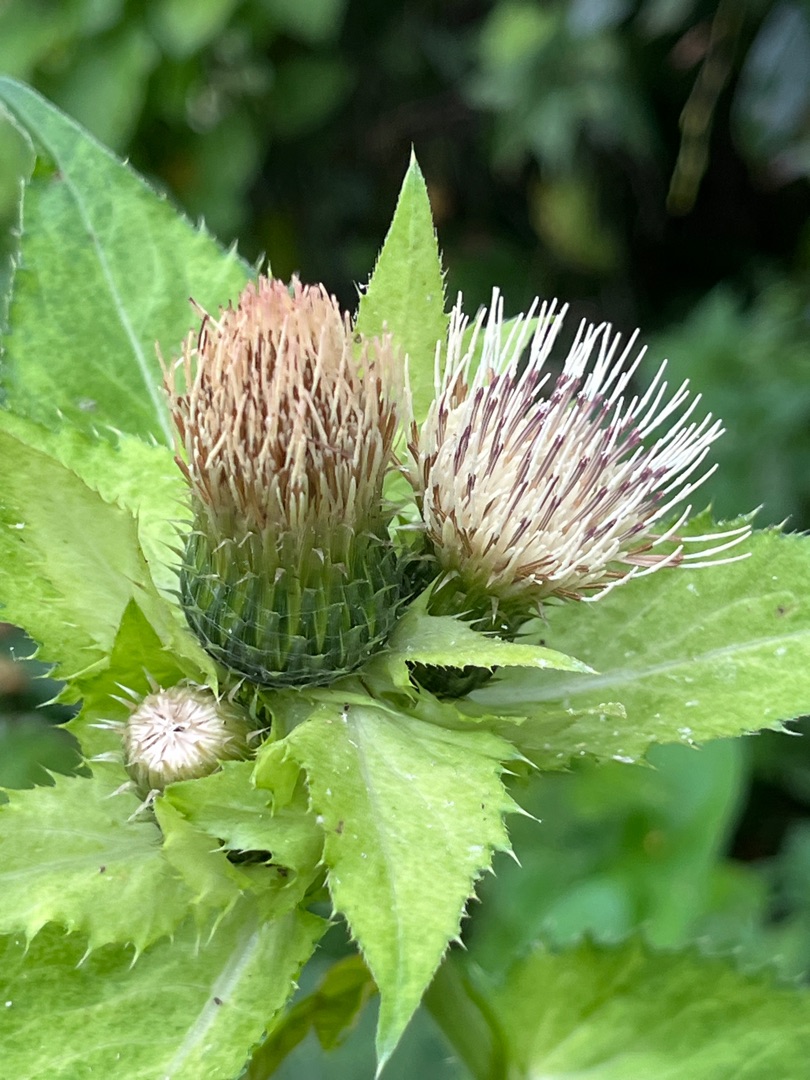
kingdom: Plantae
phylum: Tracheophyta
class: Magnoliopsida
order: Asterales
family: Asteraceae
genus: Cirsium
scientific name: Cirsium oleraceum
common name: Kål-tidsel
